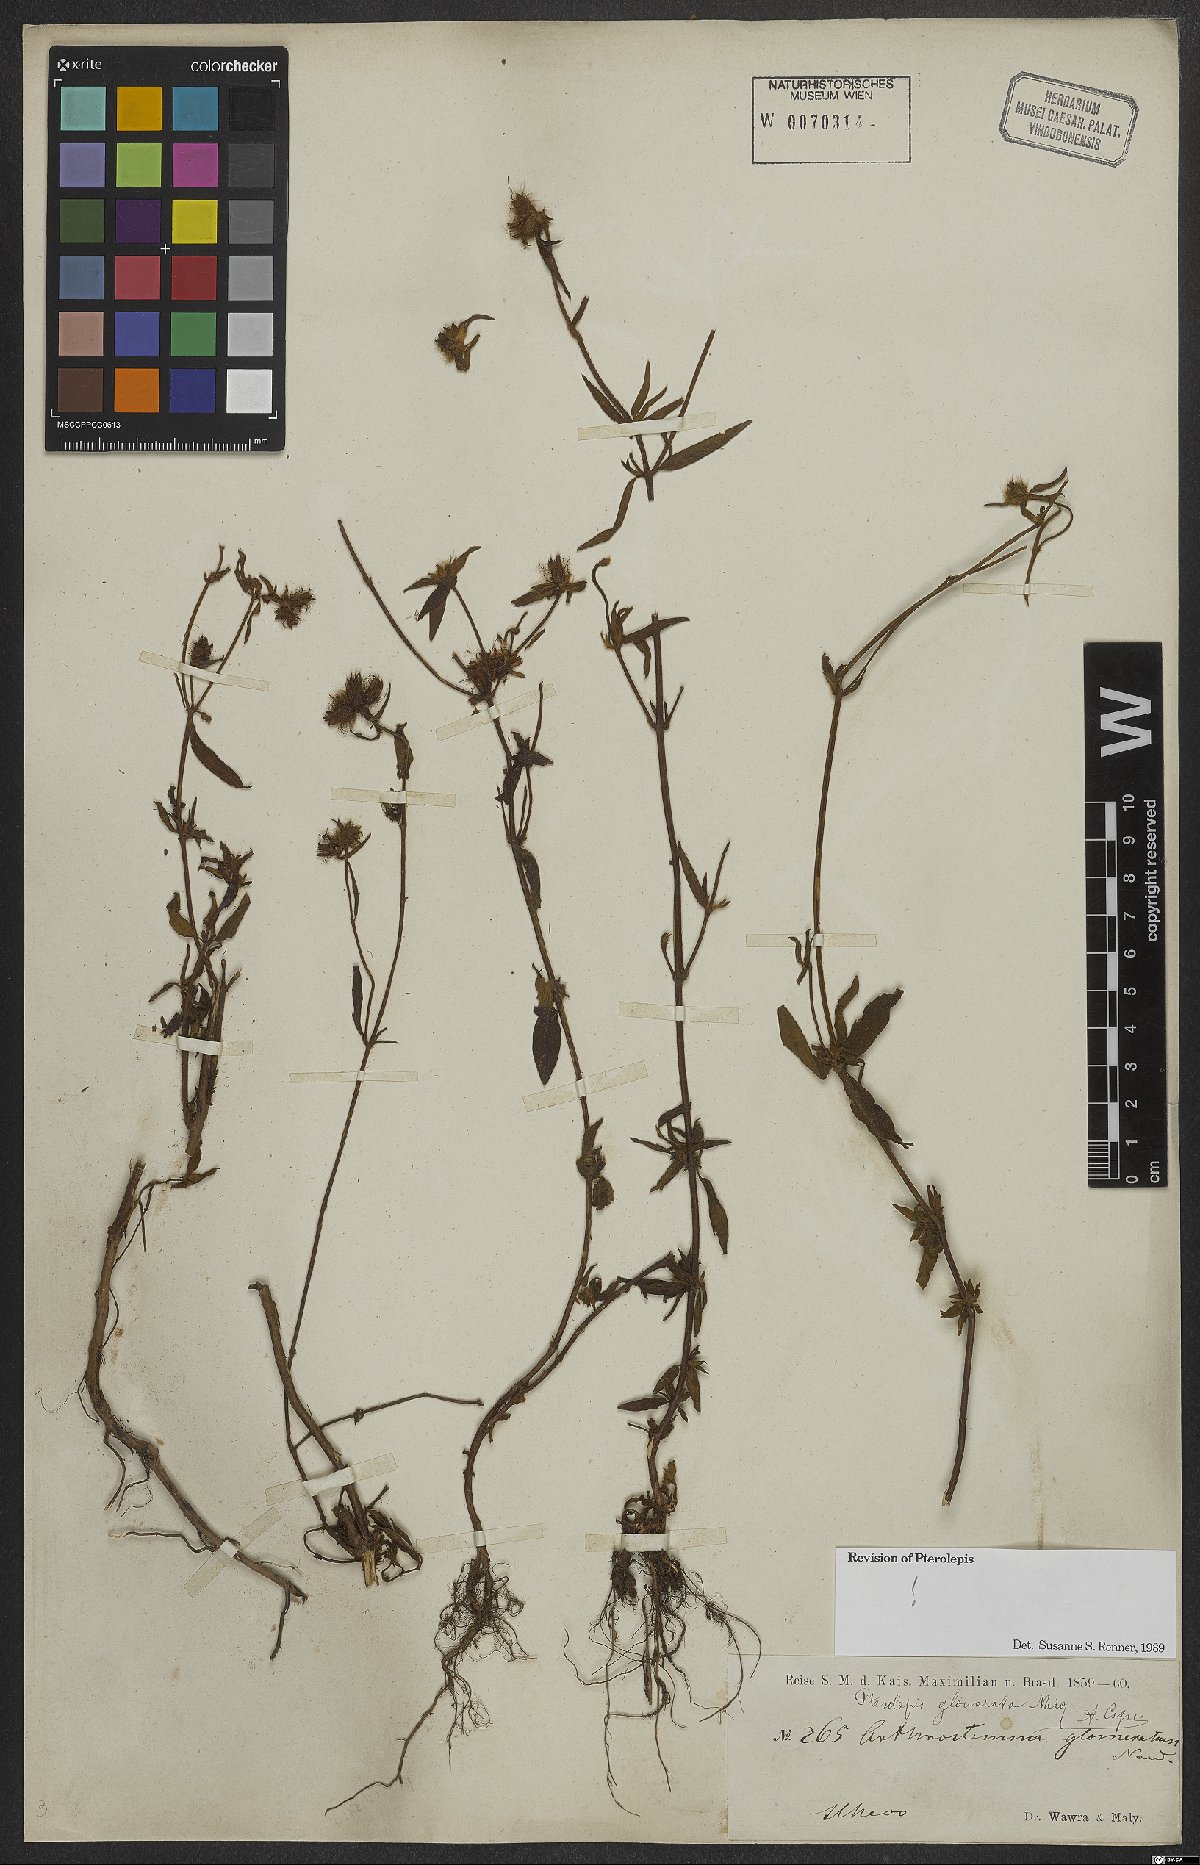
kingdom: Plantae
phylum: Tracheophyta
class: Magnoliopsida
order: Myrtales
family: Melastomataceae
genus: Pterolepis
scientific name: Pterolepis glomerata
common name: False meadowbeauty
